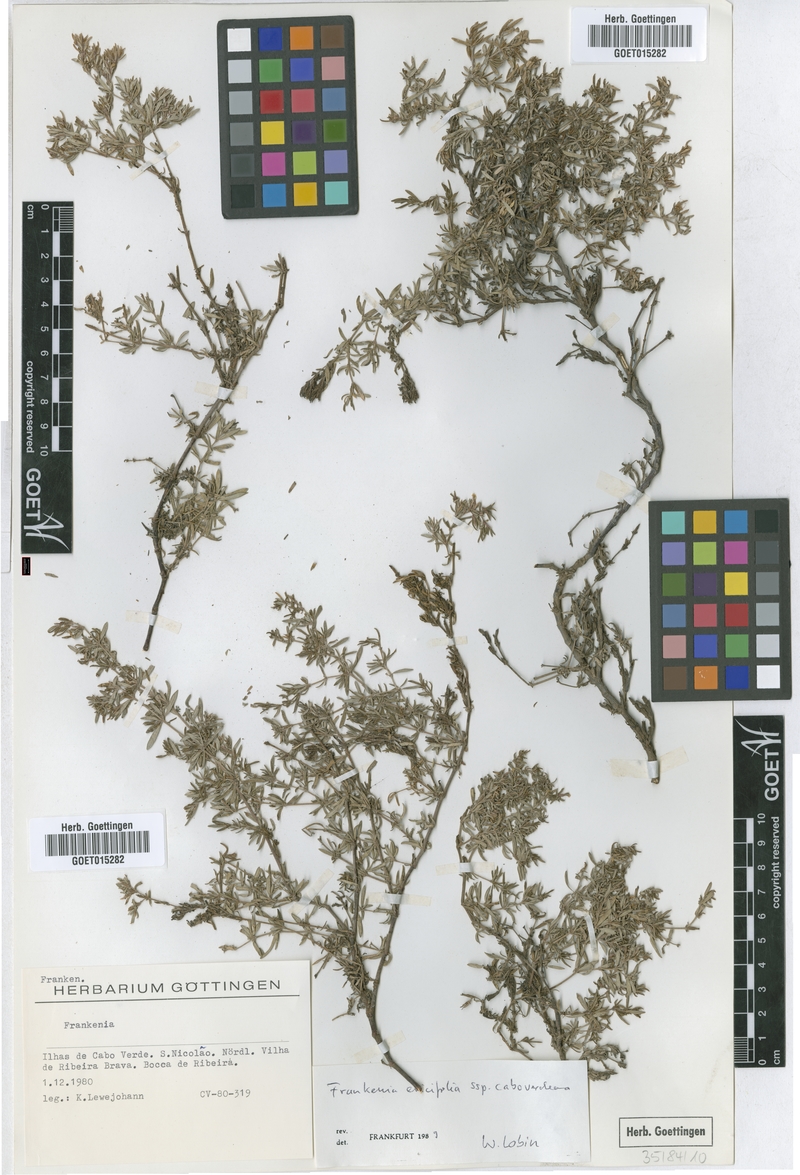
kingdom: Plantae
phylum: Tracheophyta
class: Magnoliopsida
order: Caryophyllales
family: Frankeniaceae
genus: Frankenia
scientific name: Frankenia caboverdeana
